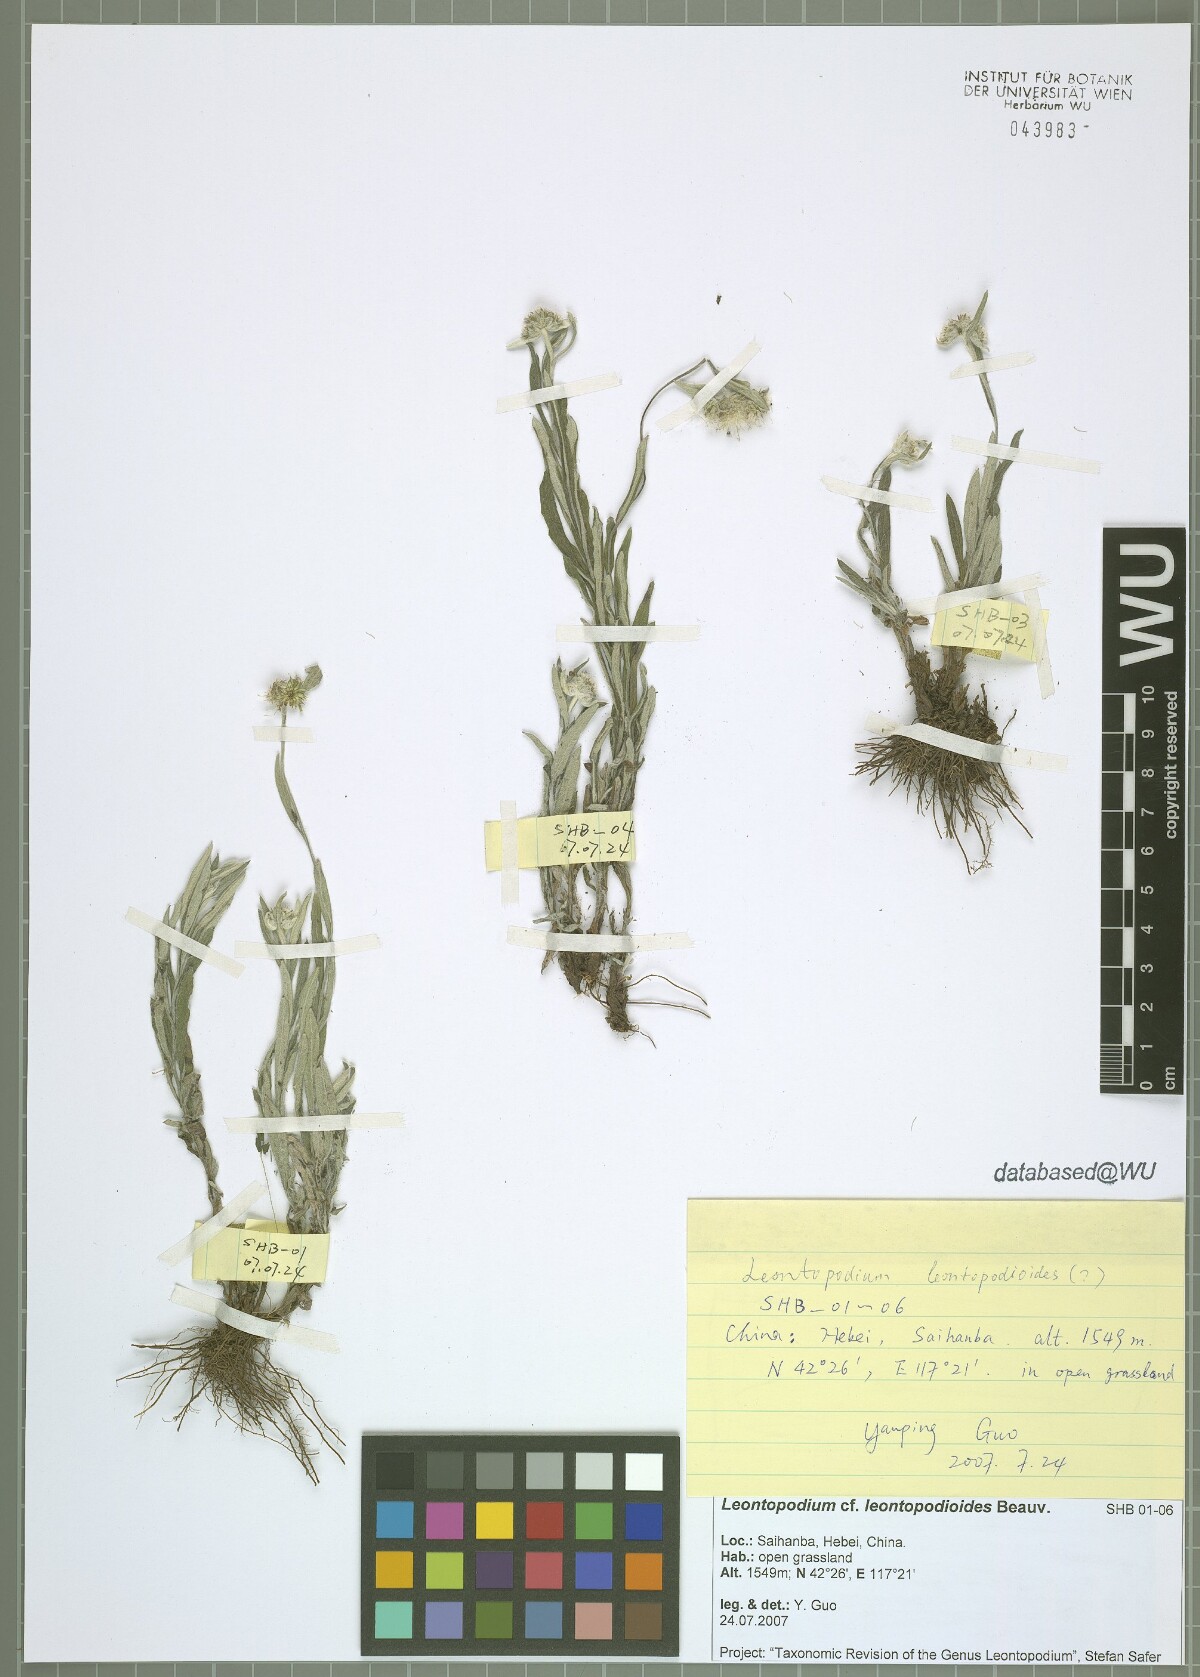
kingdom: Plantae
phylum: Tracheophyta
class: Magnoliopsida
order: Asterales
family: Asteraceae
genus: Leontopodium
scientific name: Leontopodium leontopodioides
